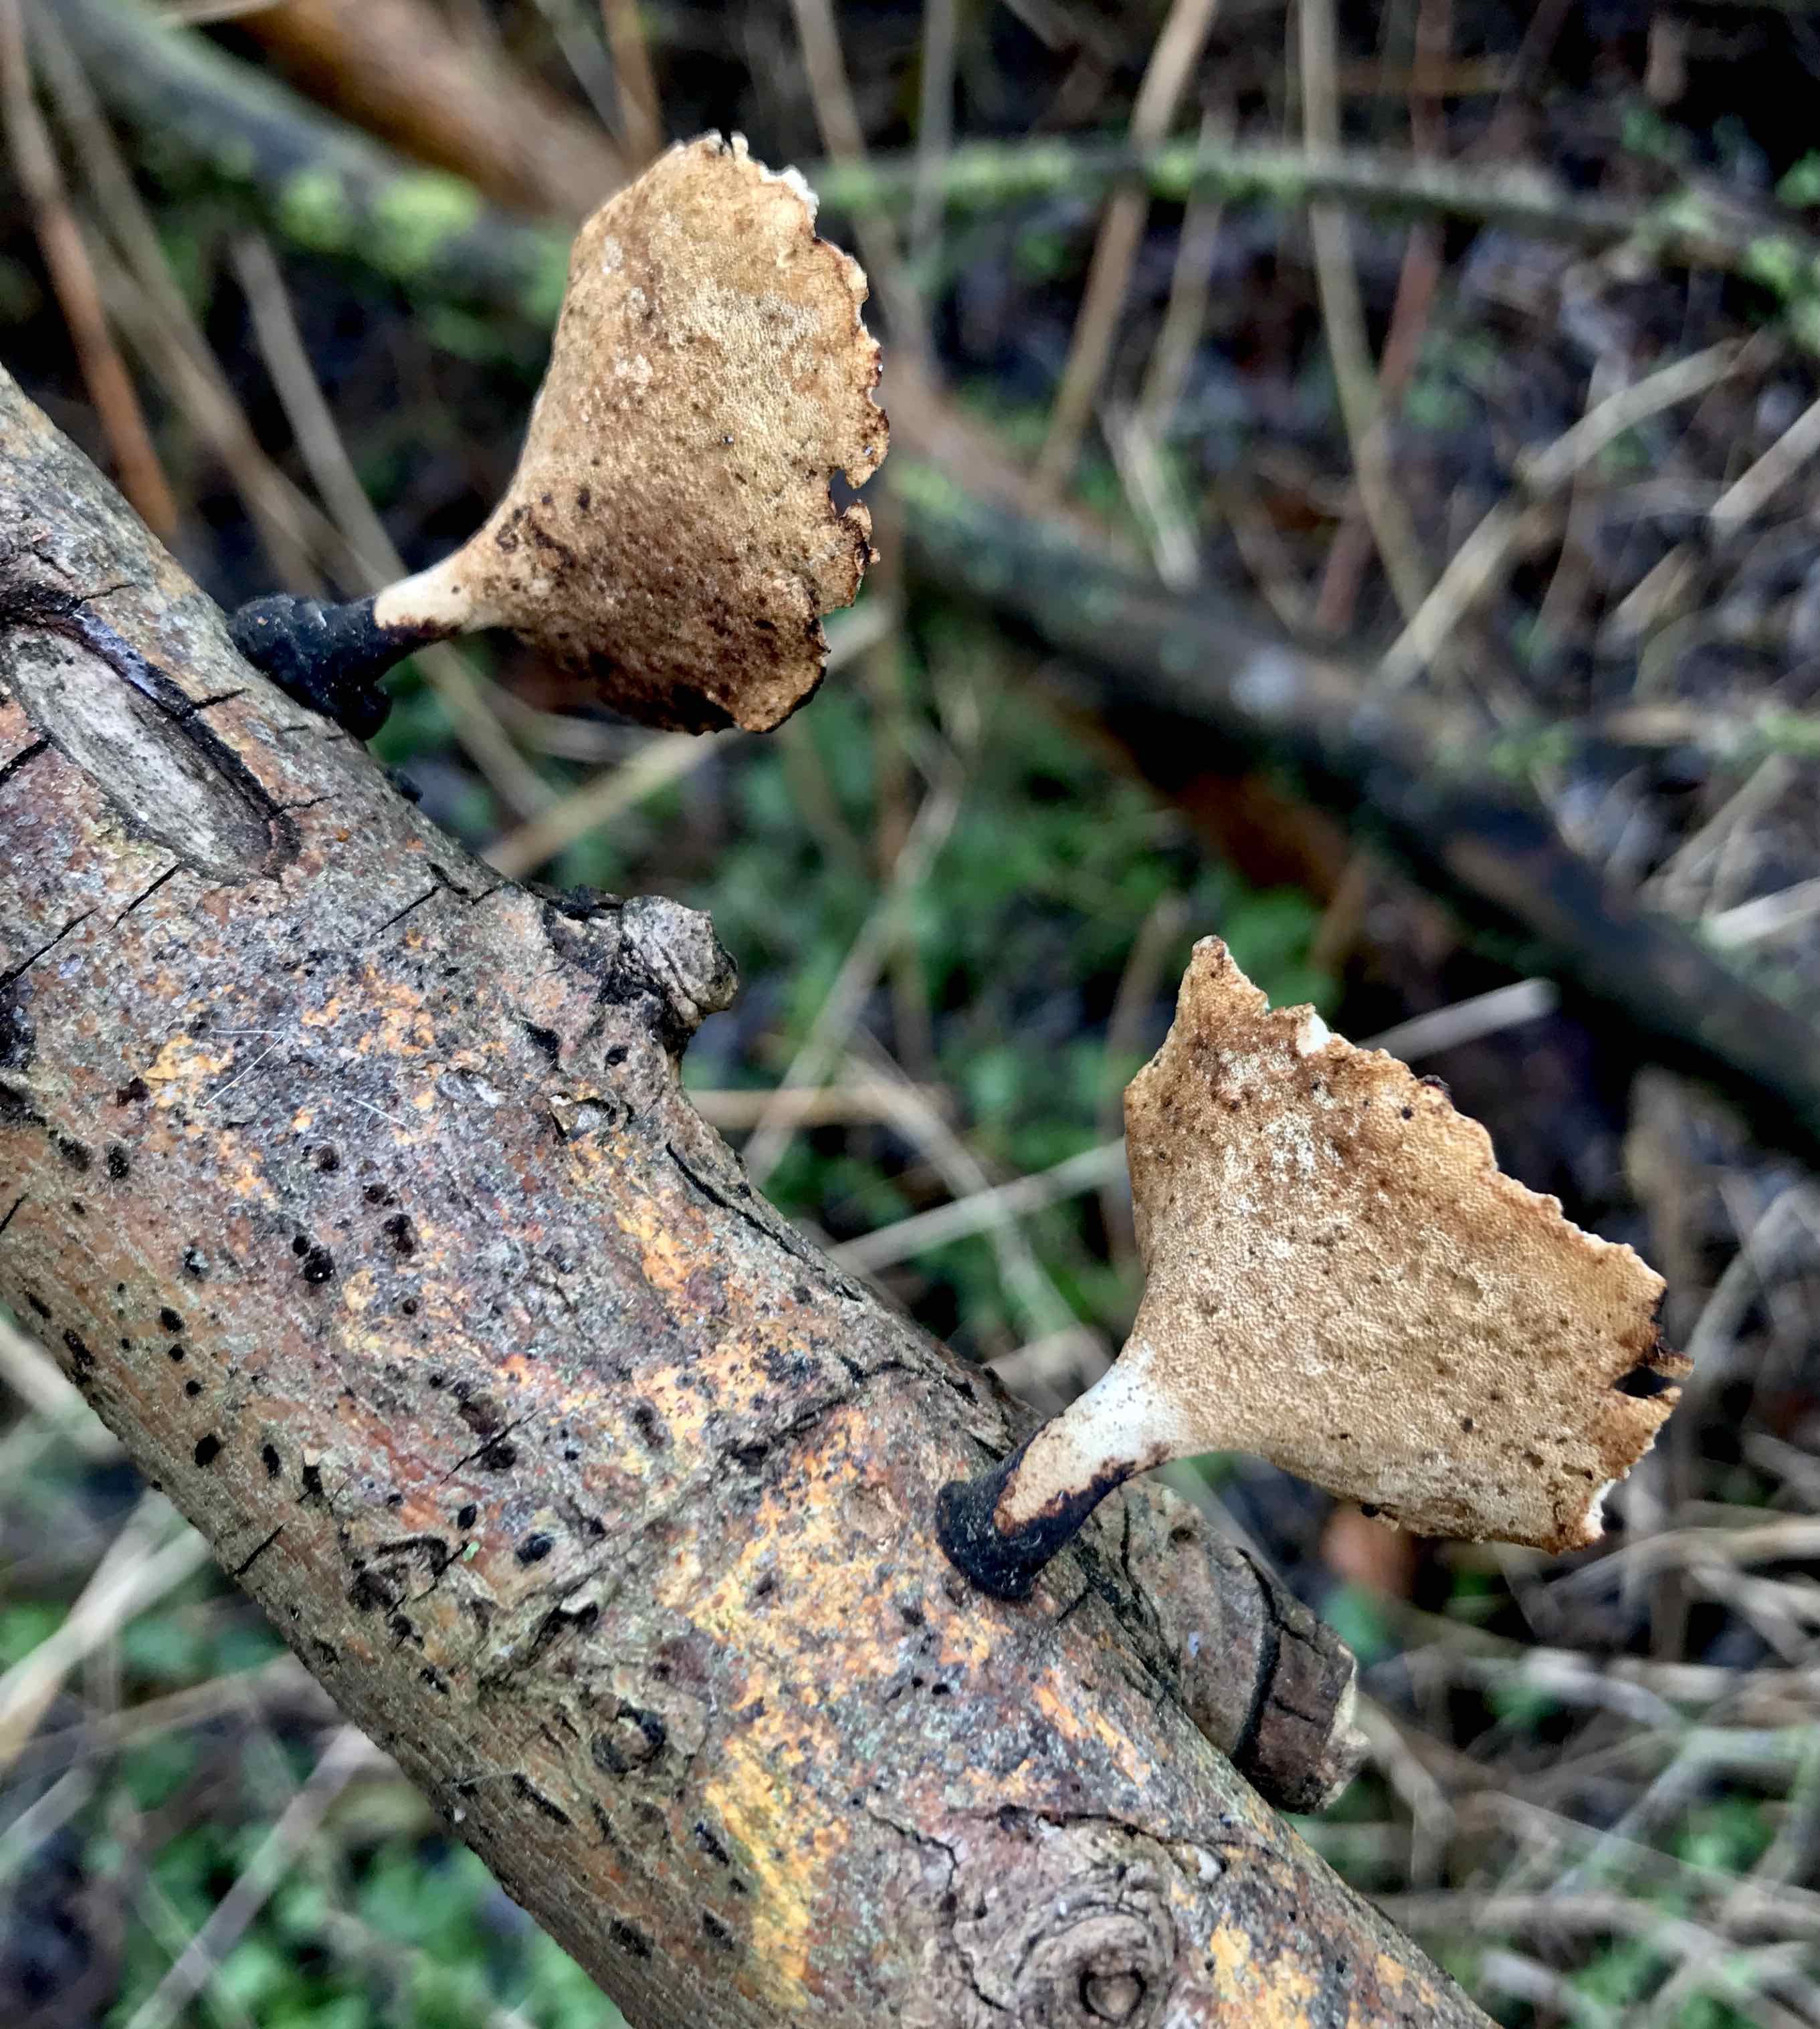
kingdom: Fungi
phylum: Basidiomycota
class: Agaricomycetes
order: Polyporales
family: Polyporaceae
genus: Lentinus
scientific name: Lentinus brumalis
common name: vinter-stilkporesvamp
